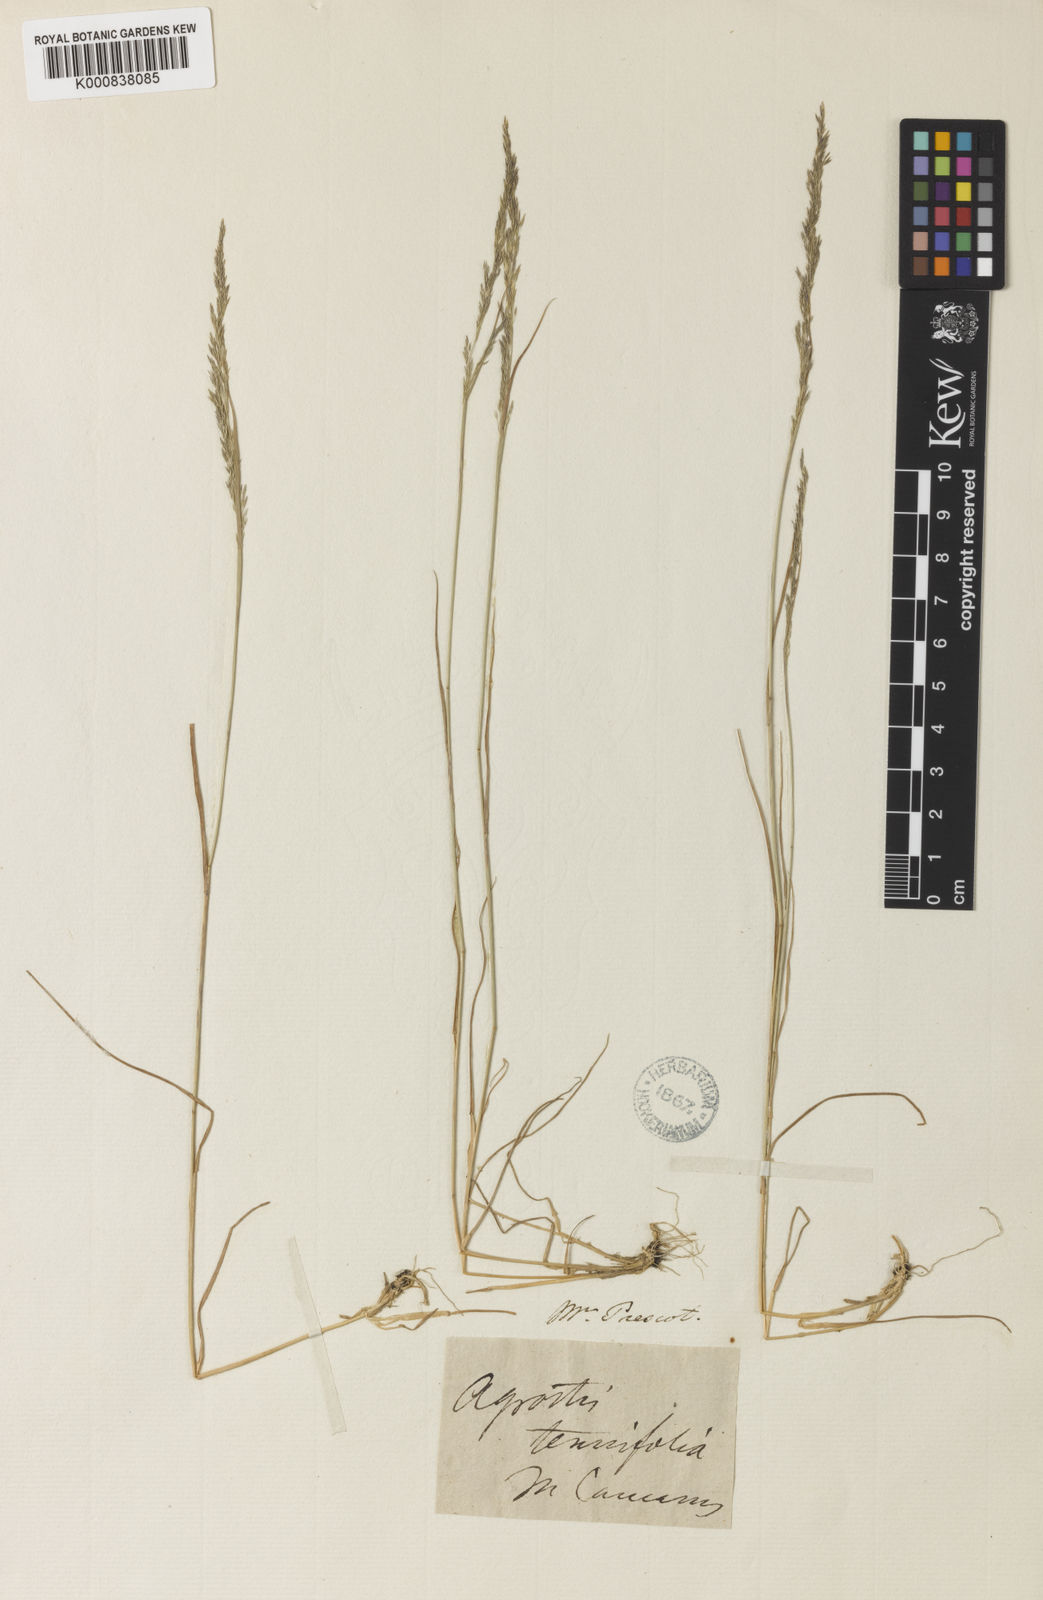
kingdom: Plantae
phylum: Tracheophyta
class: Liliopsida
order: Poales
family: Poaceae
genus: Agrostis
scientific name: Agrostis canina
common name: Velvet bent
